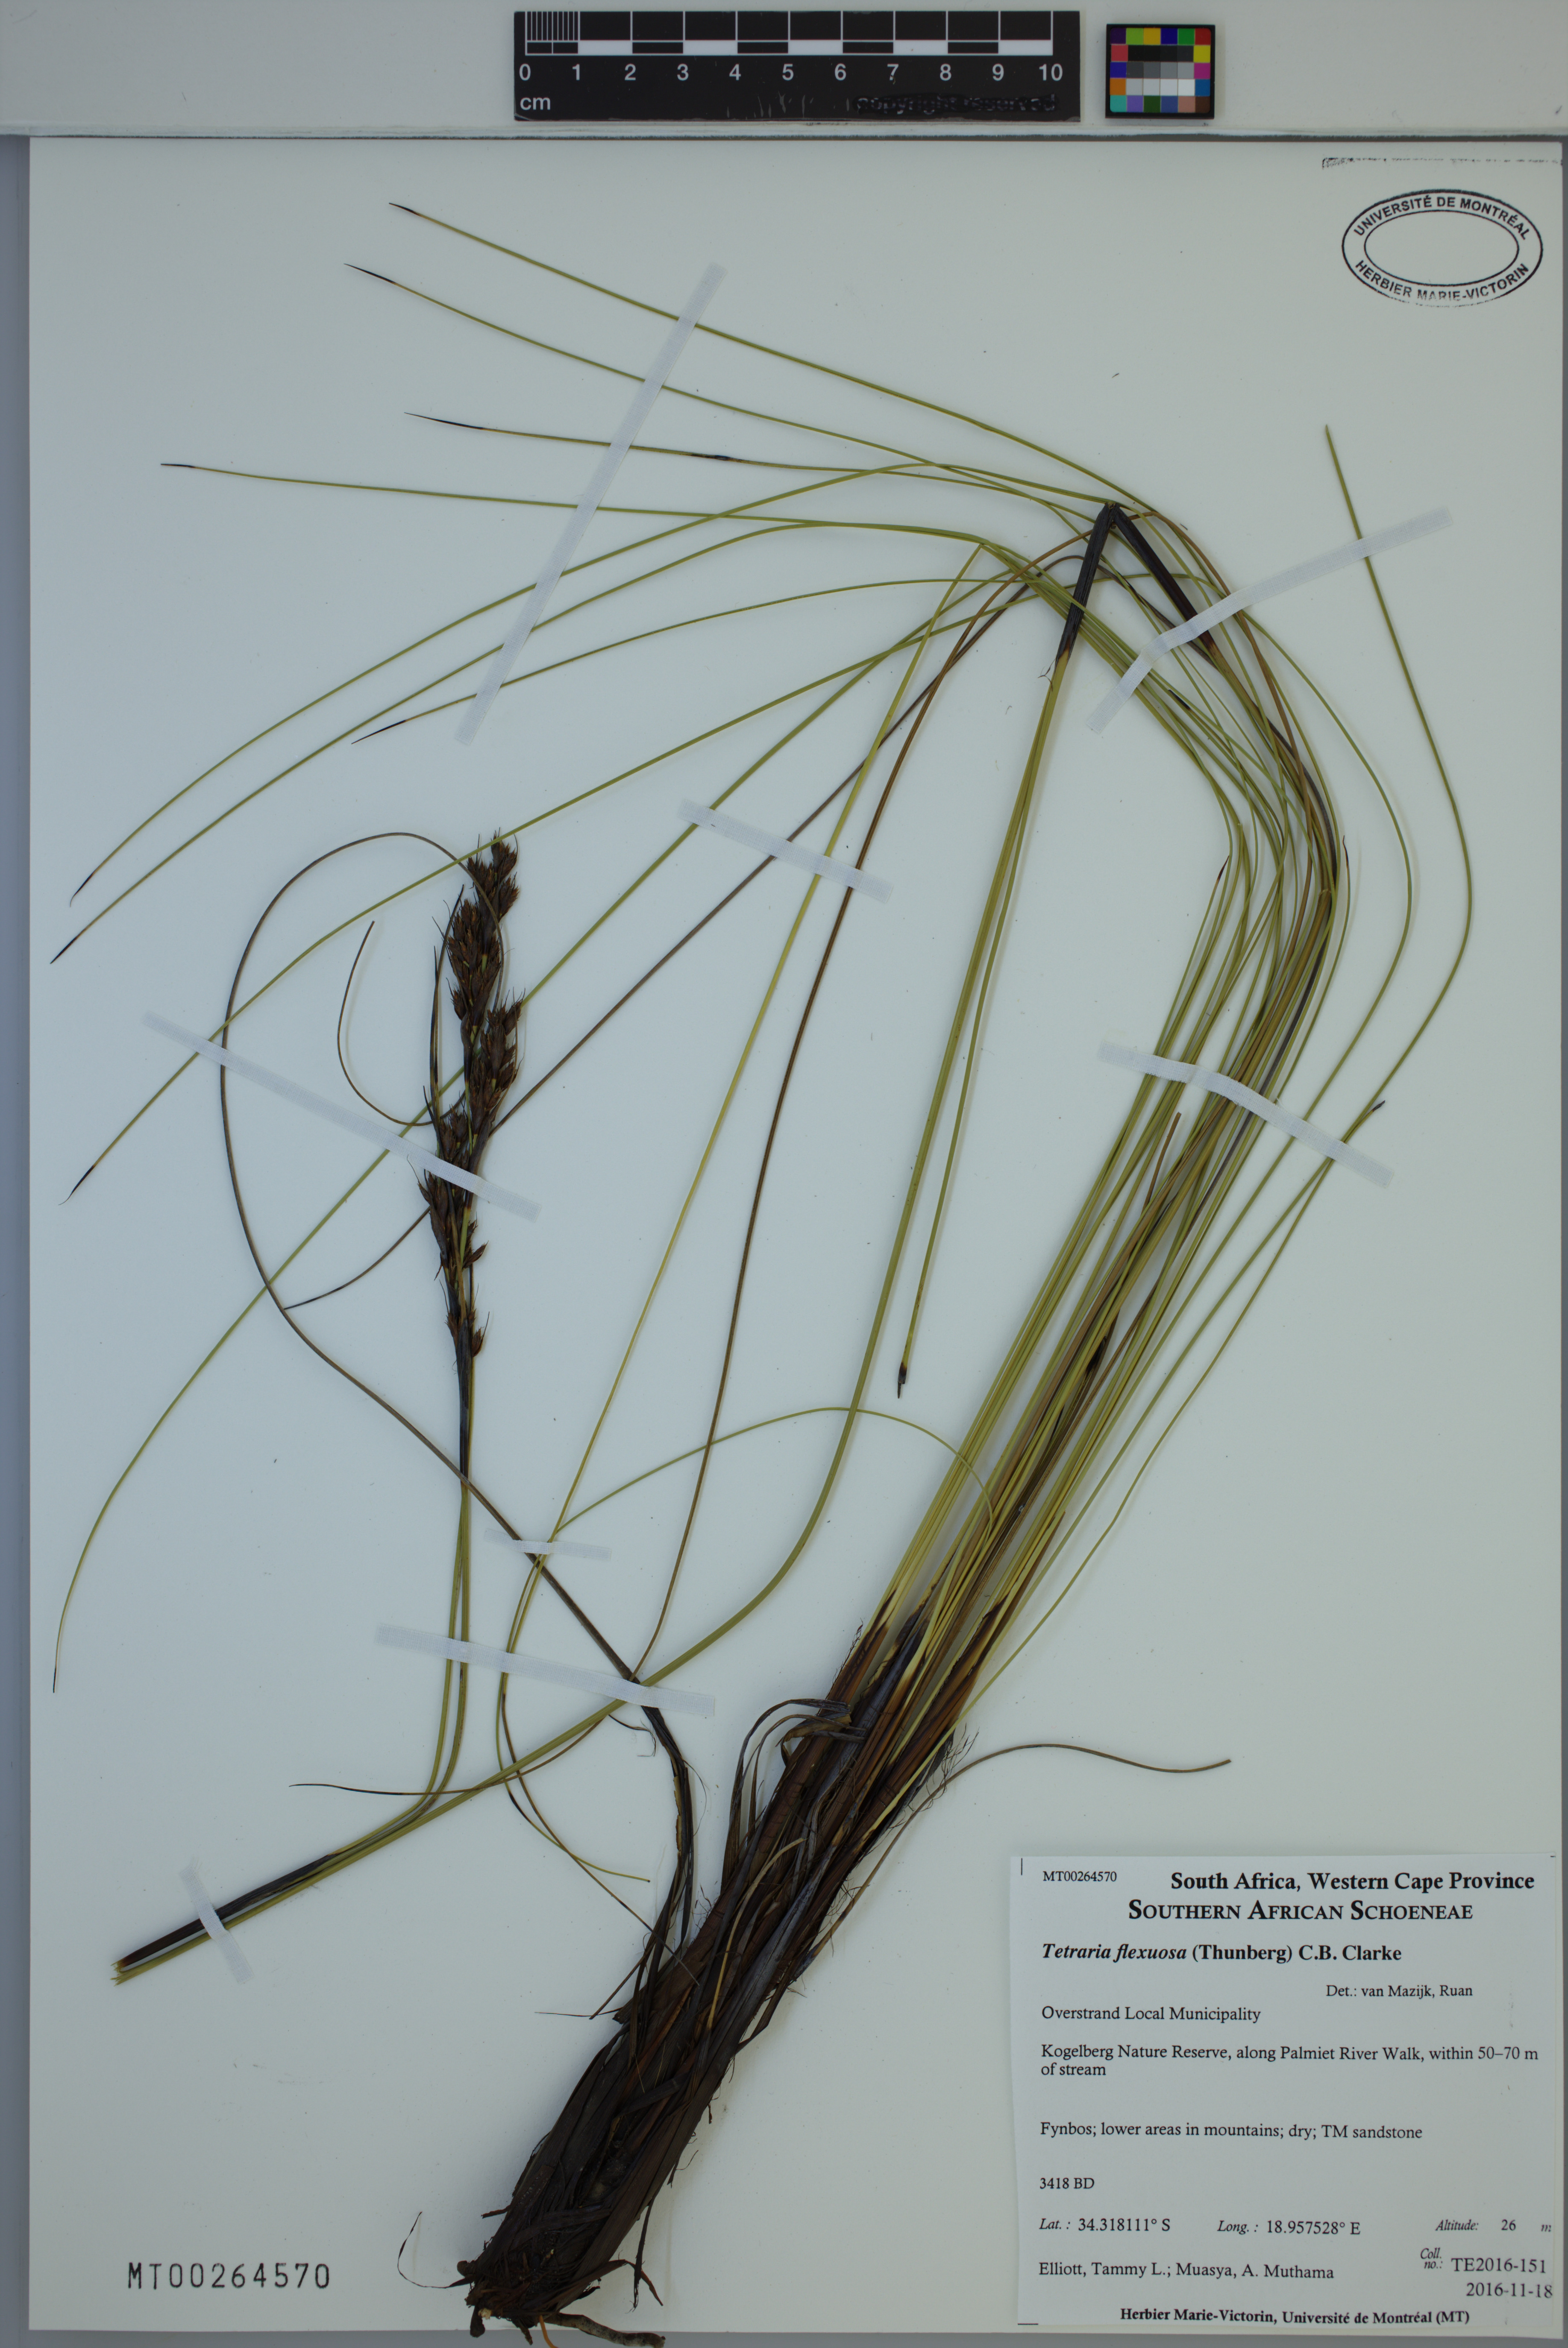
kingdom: Plantae
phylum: Tracheophyta
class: Liliopsida
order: Poales
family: Cyperaceae
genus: Tetraria
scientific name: Tetraria flexuosa
